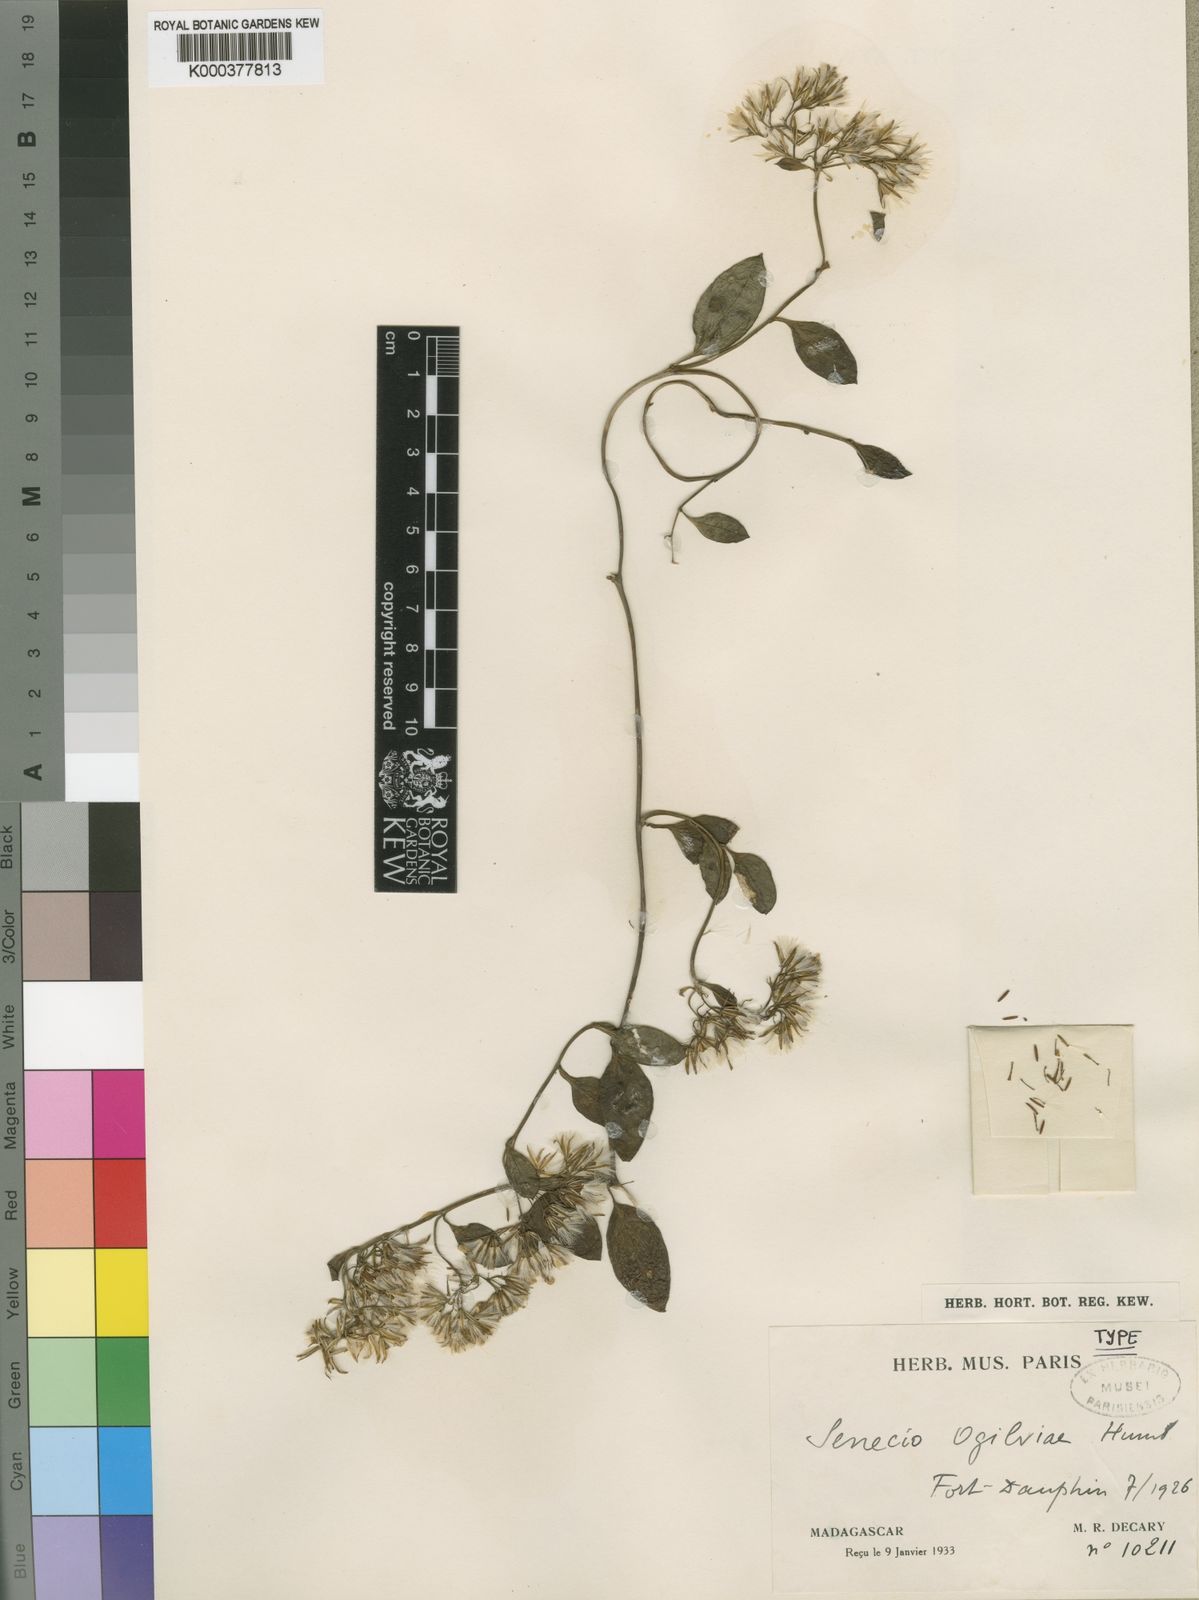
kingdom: Plantae
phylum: Tracheophyta
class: Magnoliopsida
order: Asterales
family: Asteraceae
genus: Senecio
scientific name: Senecio acetosifolius
